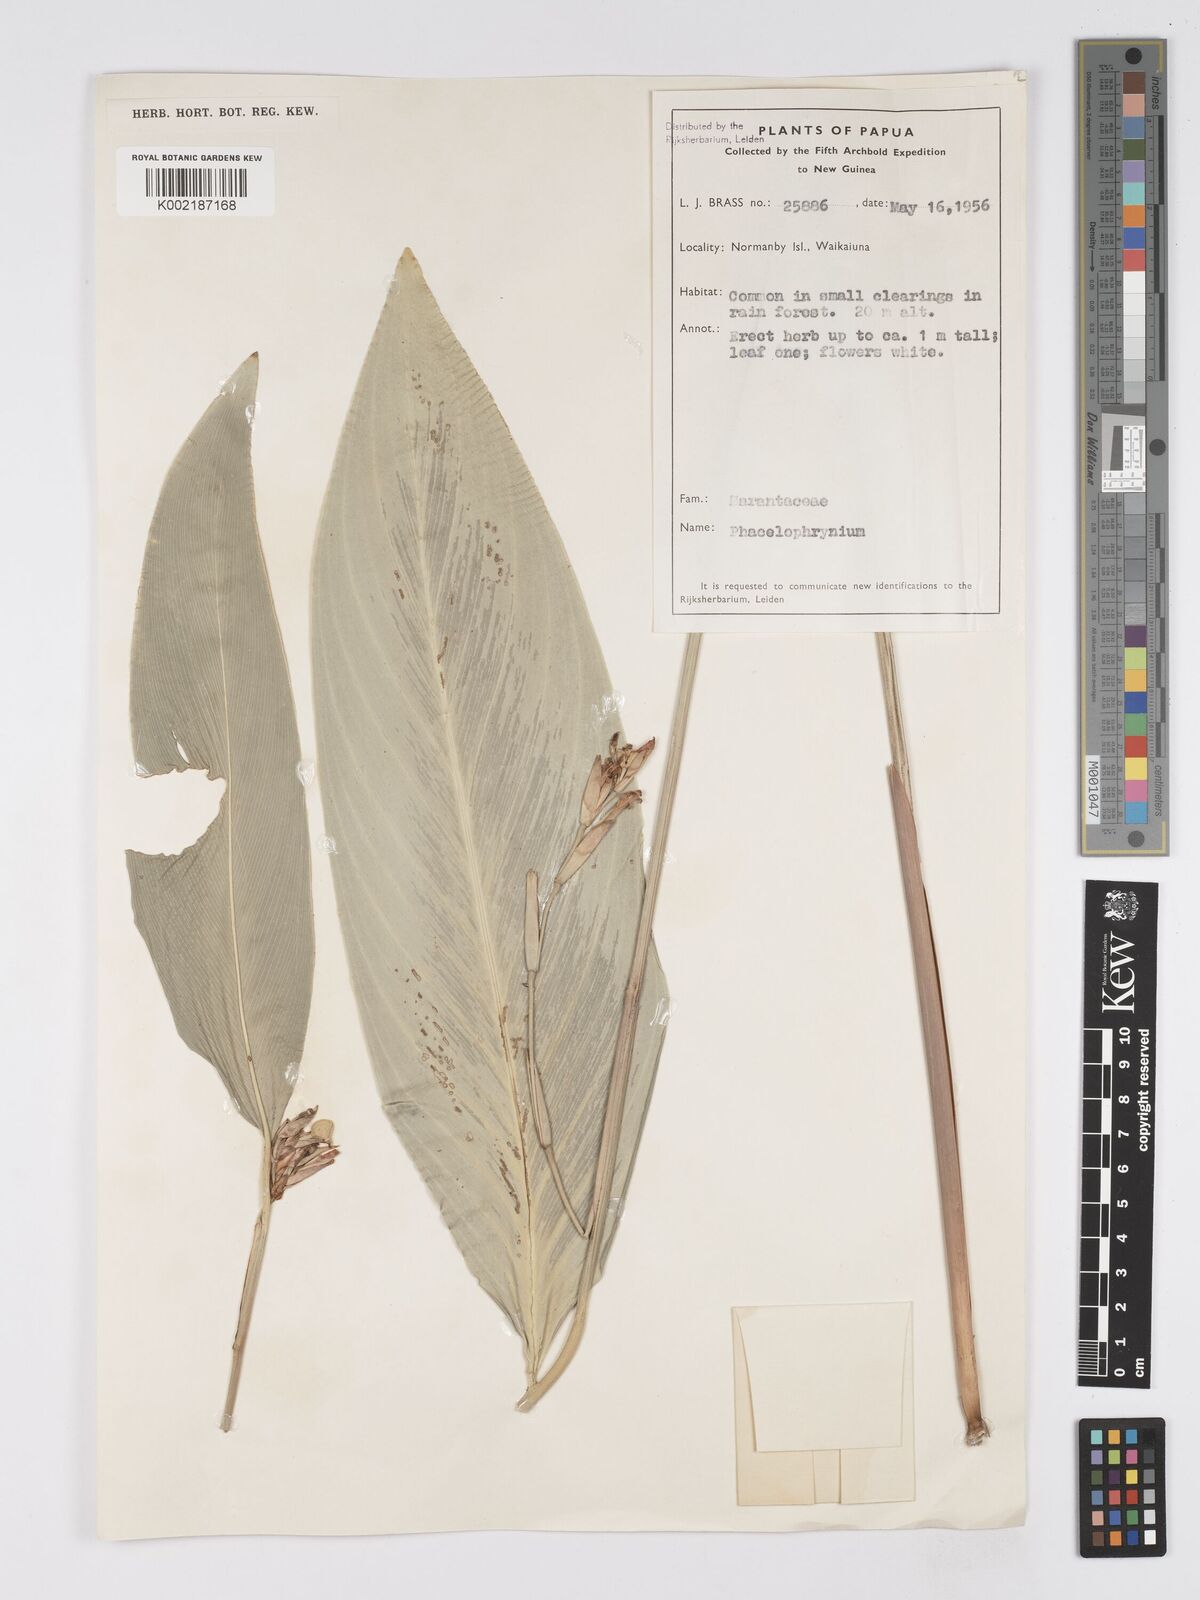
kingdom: Plantae
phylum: Tracheophyta
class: Liliopsida
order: Zingiberales
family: Marantaceae
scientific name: Marantaceae
